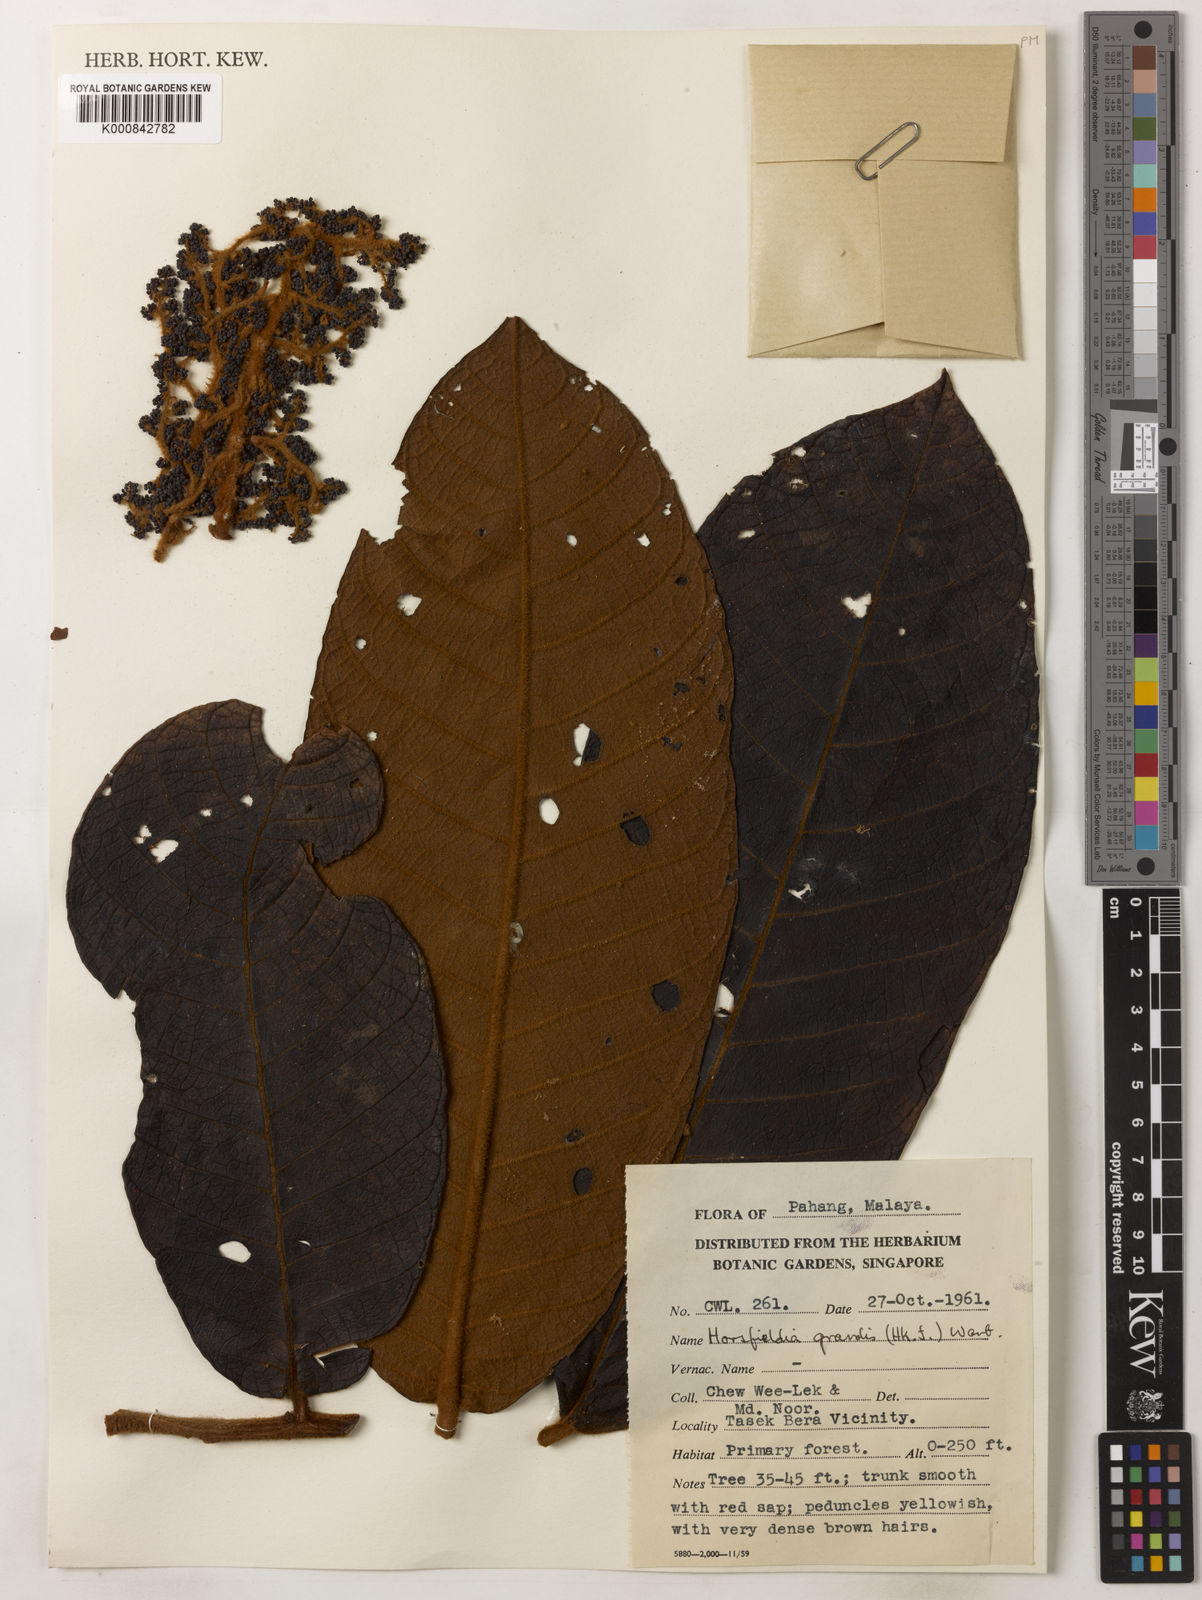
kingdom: Plantae
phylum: Tracheophyta
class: Magnoliopsida
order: Magnoliales
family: Myristicaceae
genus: Horsfieldia
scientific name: Horsfieldia grandis
